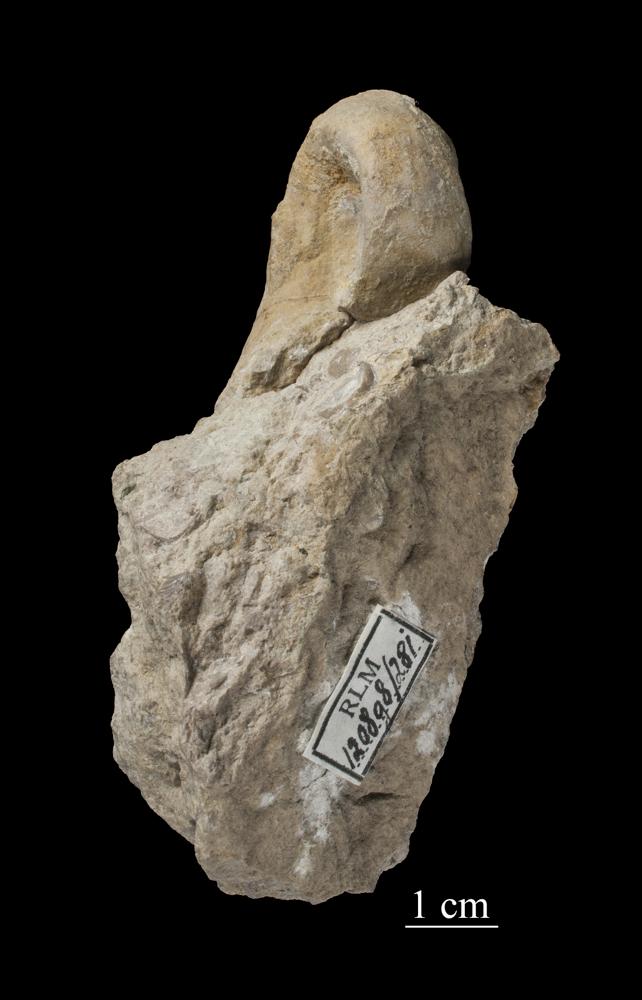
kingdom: Animalia
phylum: Mollusca
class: Gastropoda
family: Bellerophontidae
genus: Bellerophon
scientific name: Bellerophon
